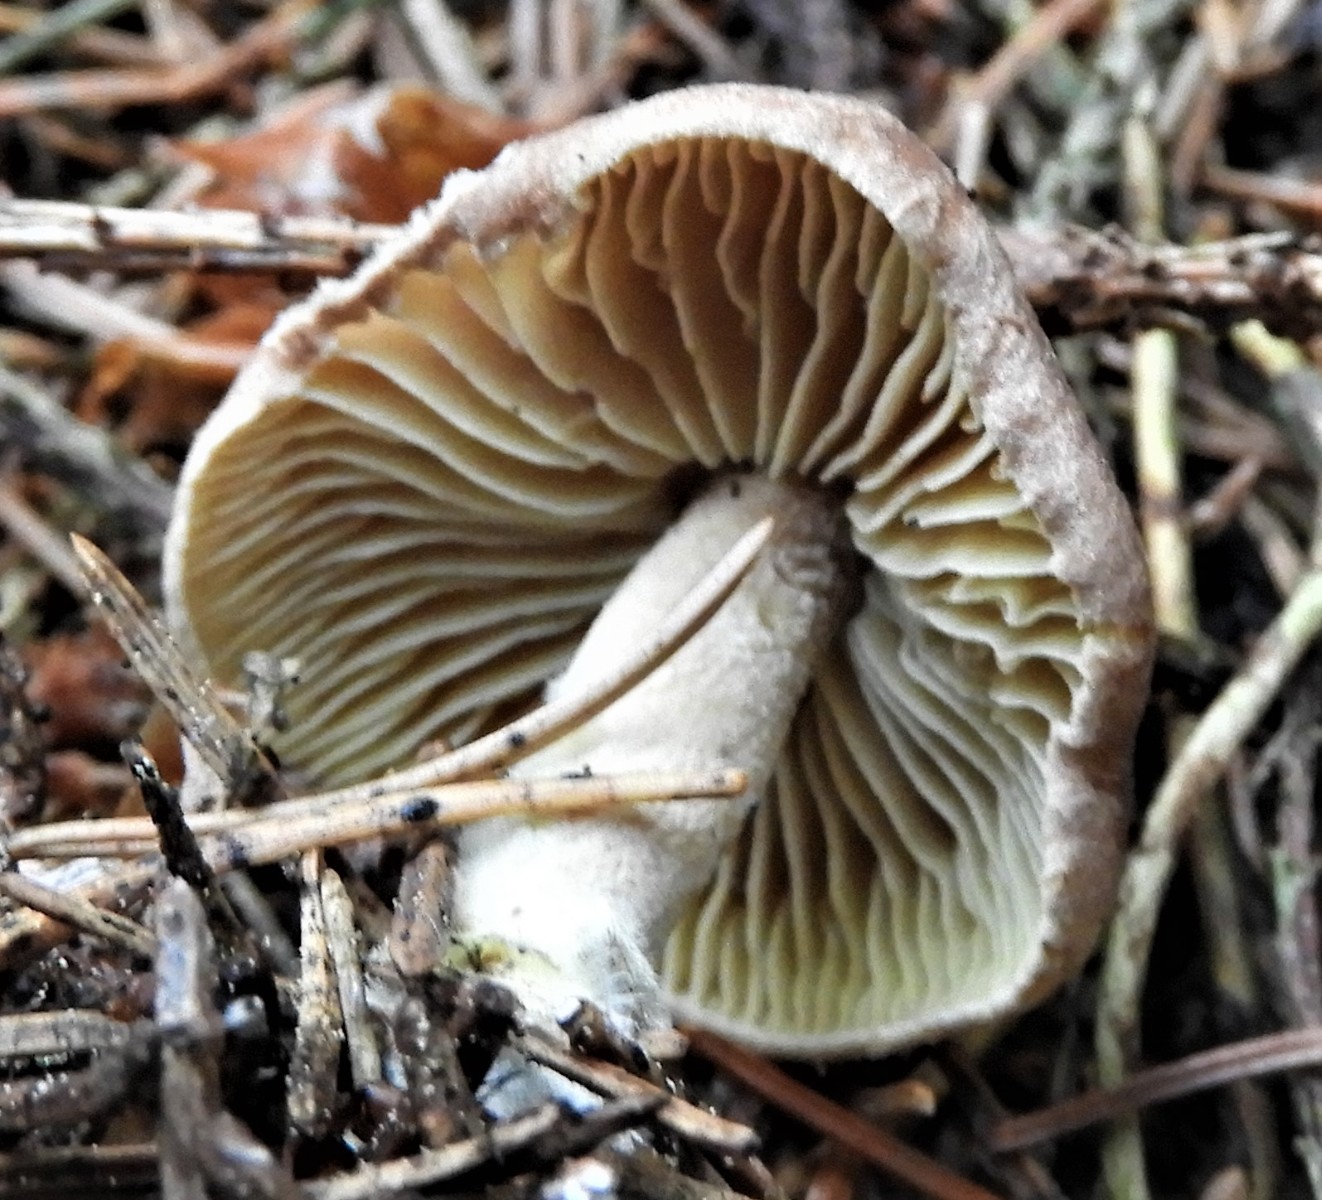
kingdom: Fungi
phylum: Basidiomycota
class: Agaricomycetes
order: Agaricales
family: Omphalotaceae
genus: Collybiopsis
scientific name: Collybiopsis peronata
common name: bestøvlet fladhat
